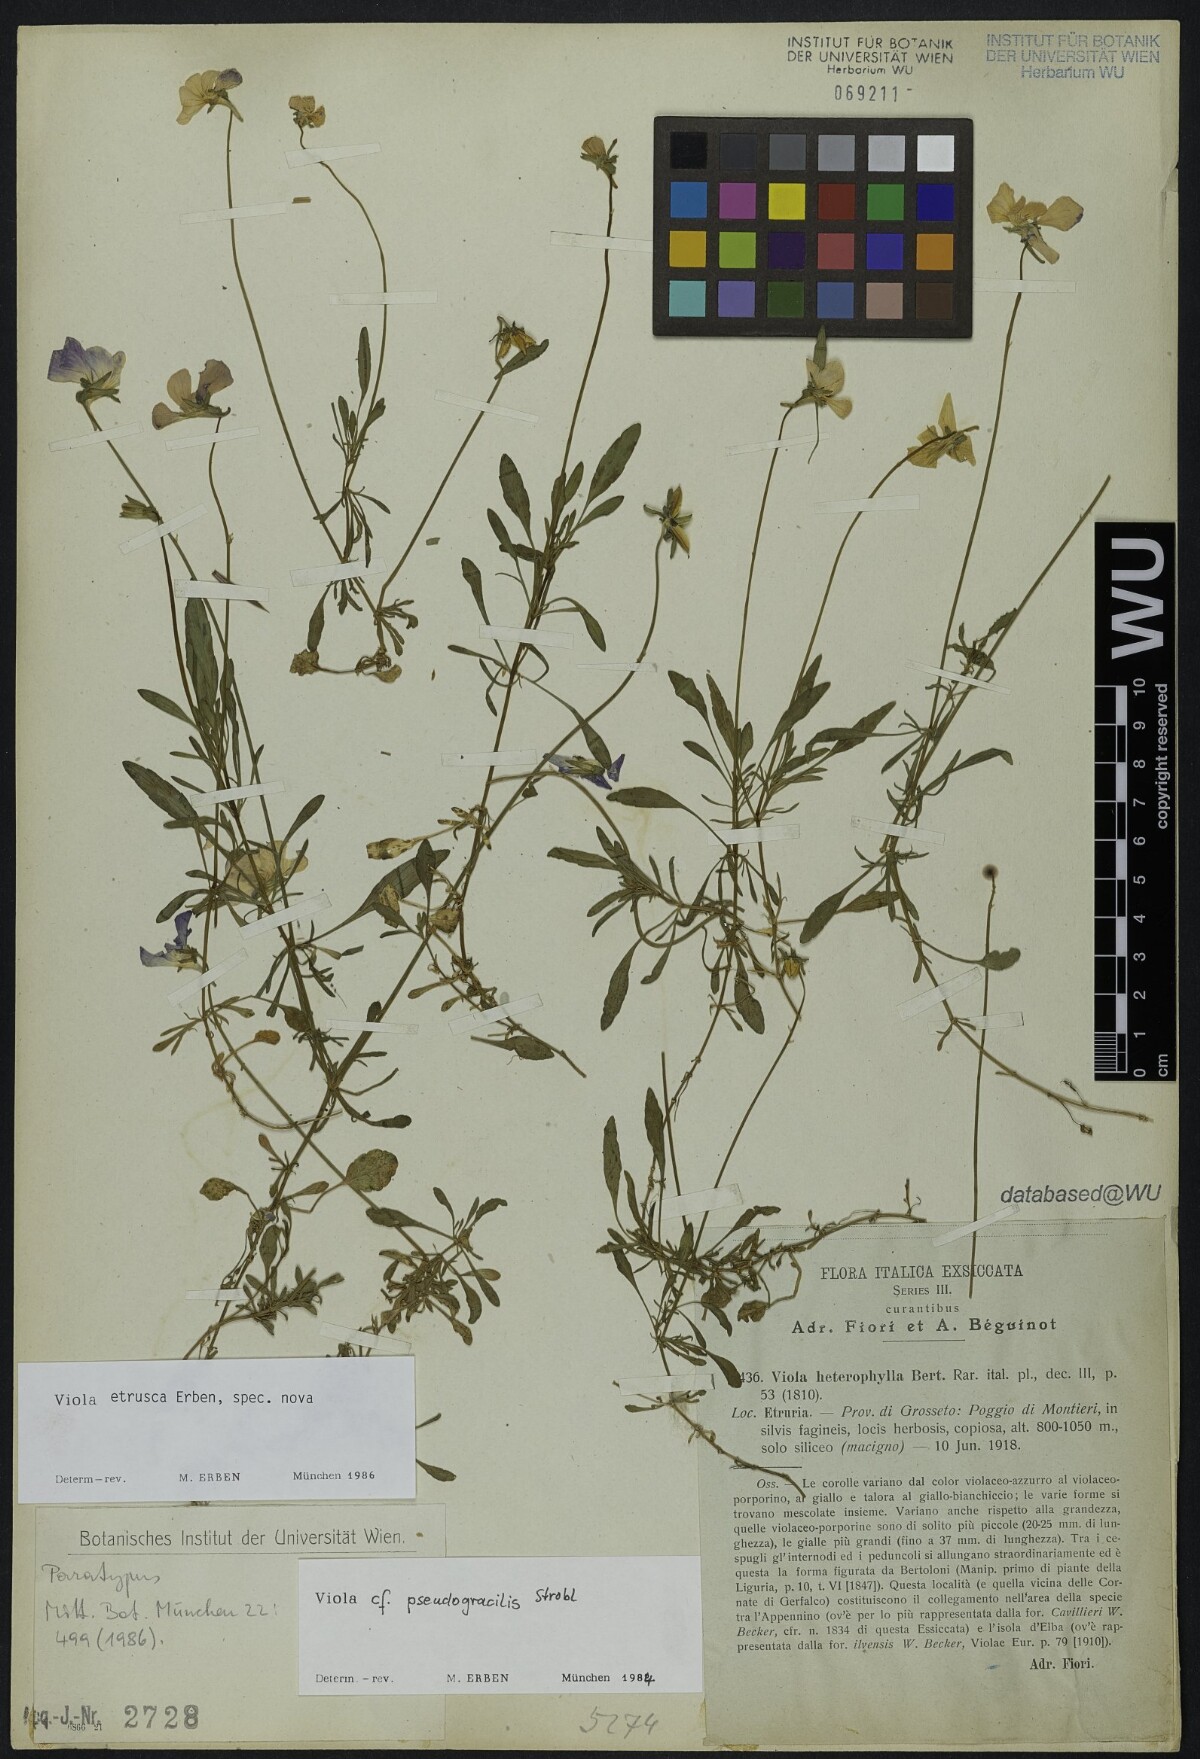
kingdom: Plantae
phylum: Tracheophyta
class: Magnoliopsida
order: Malpighiales
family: Violaceae
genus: Viola
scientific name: Viola etrusca
